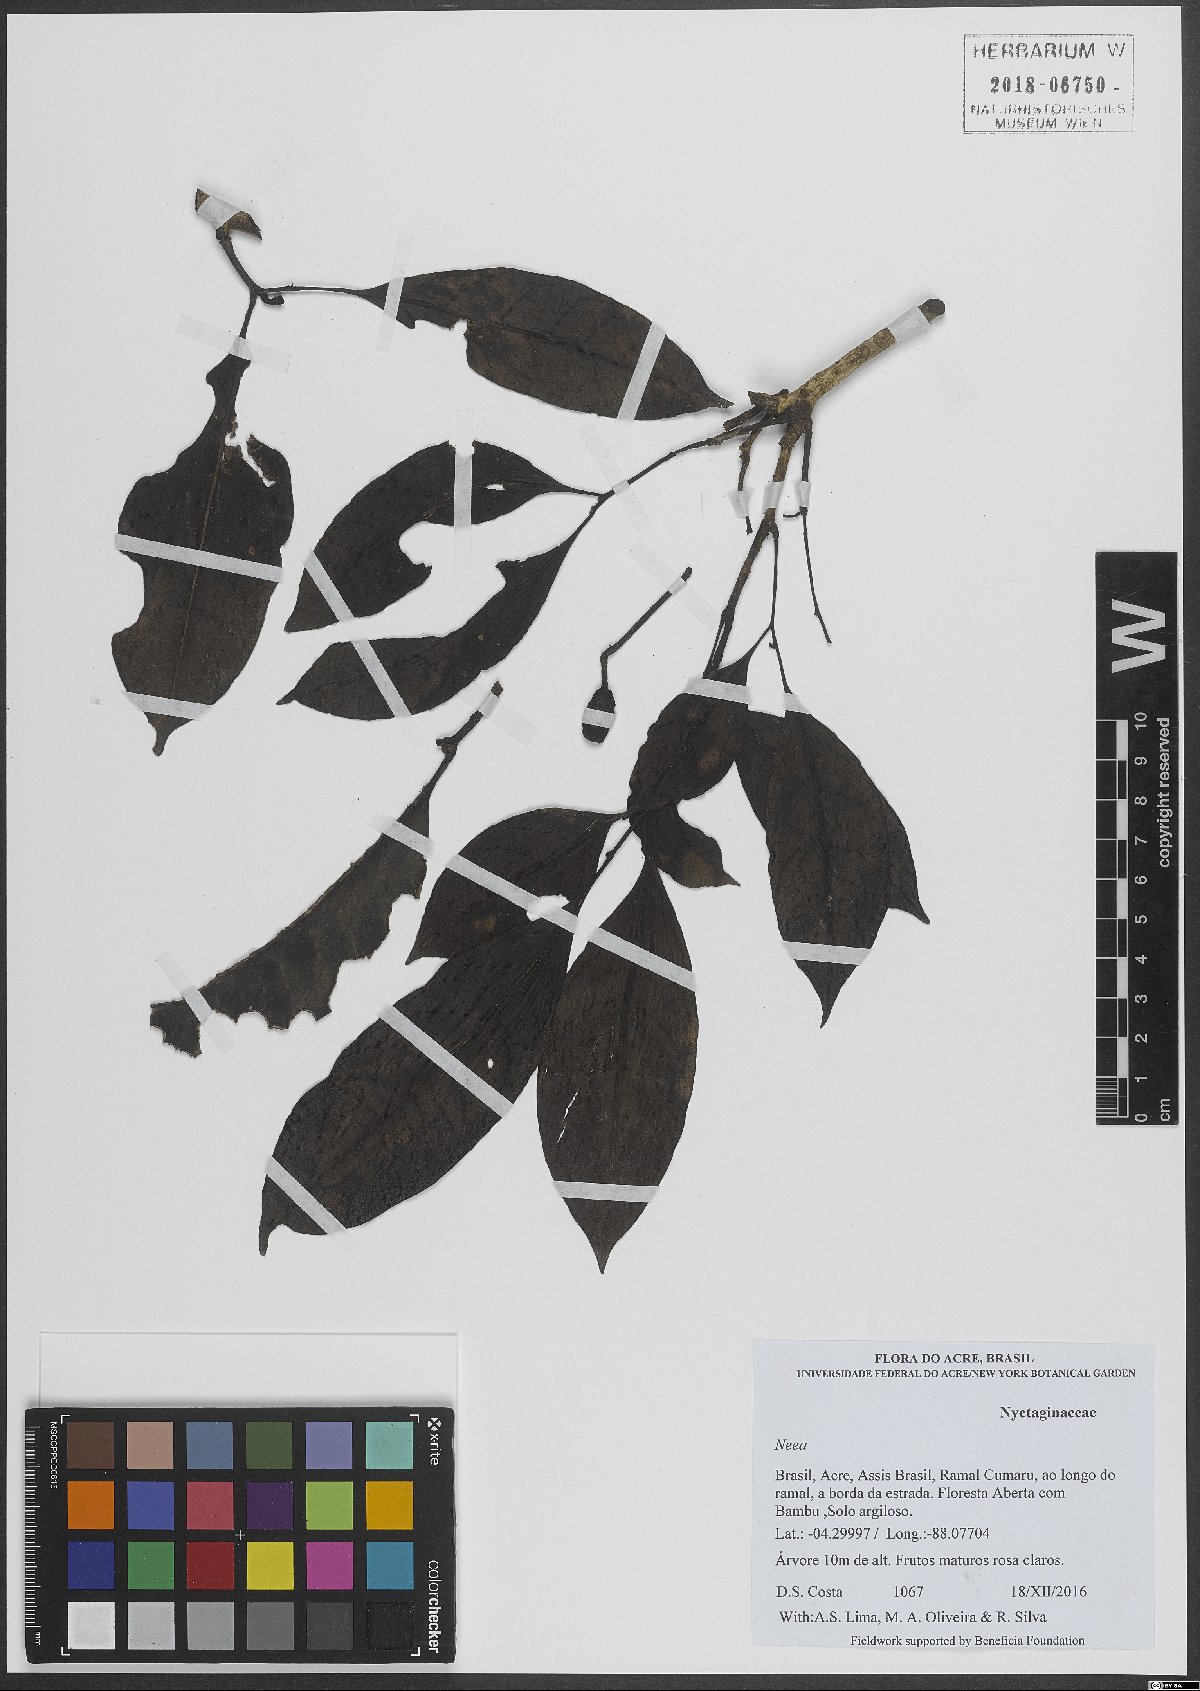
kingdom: Plantae
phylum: Tracheophyta
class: Magnoliopsida
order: Caryophyllales
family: Nyctaginaceae
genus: Neea
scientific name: Neea
